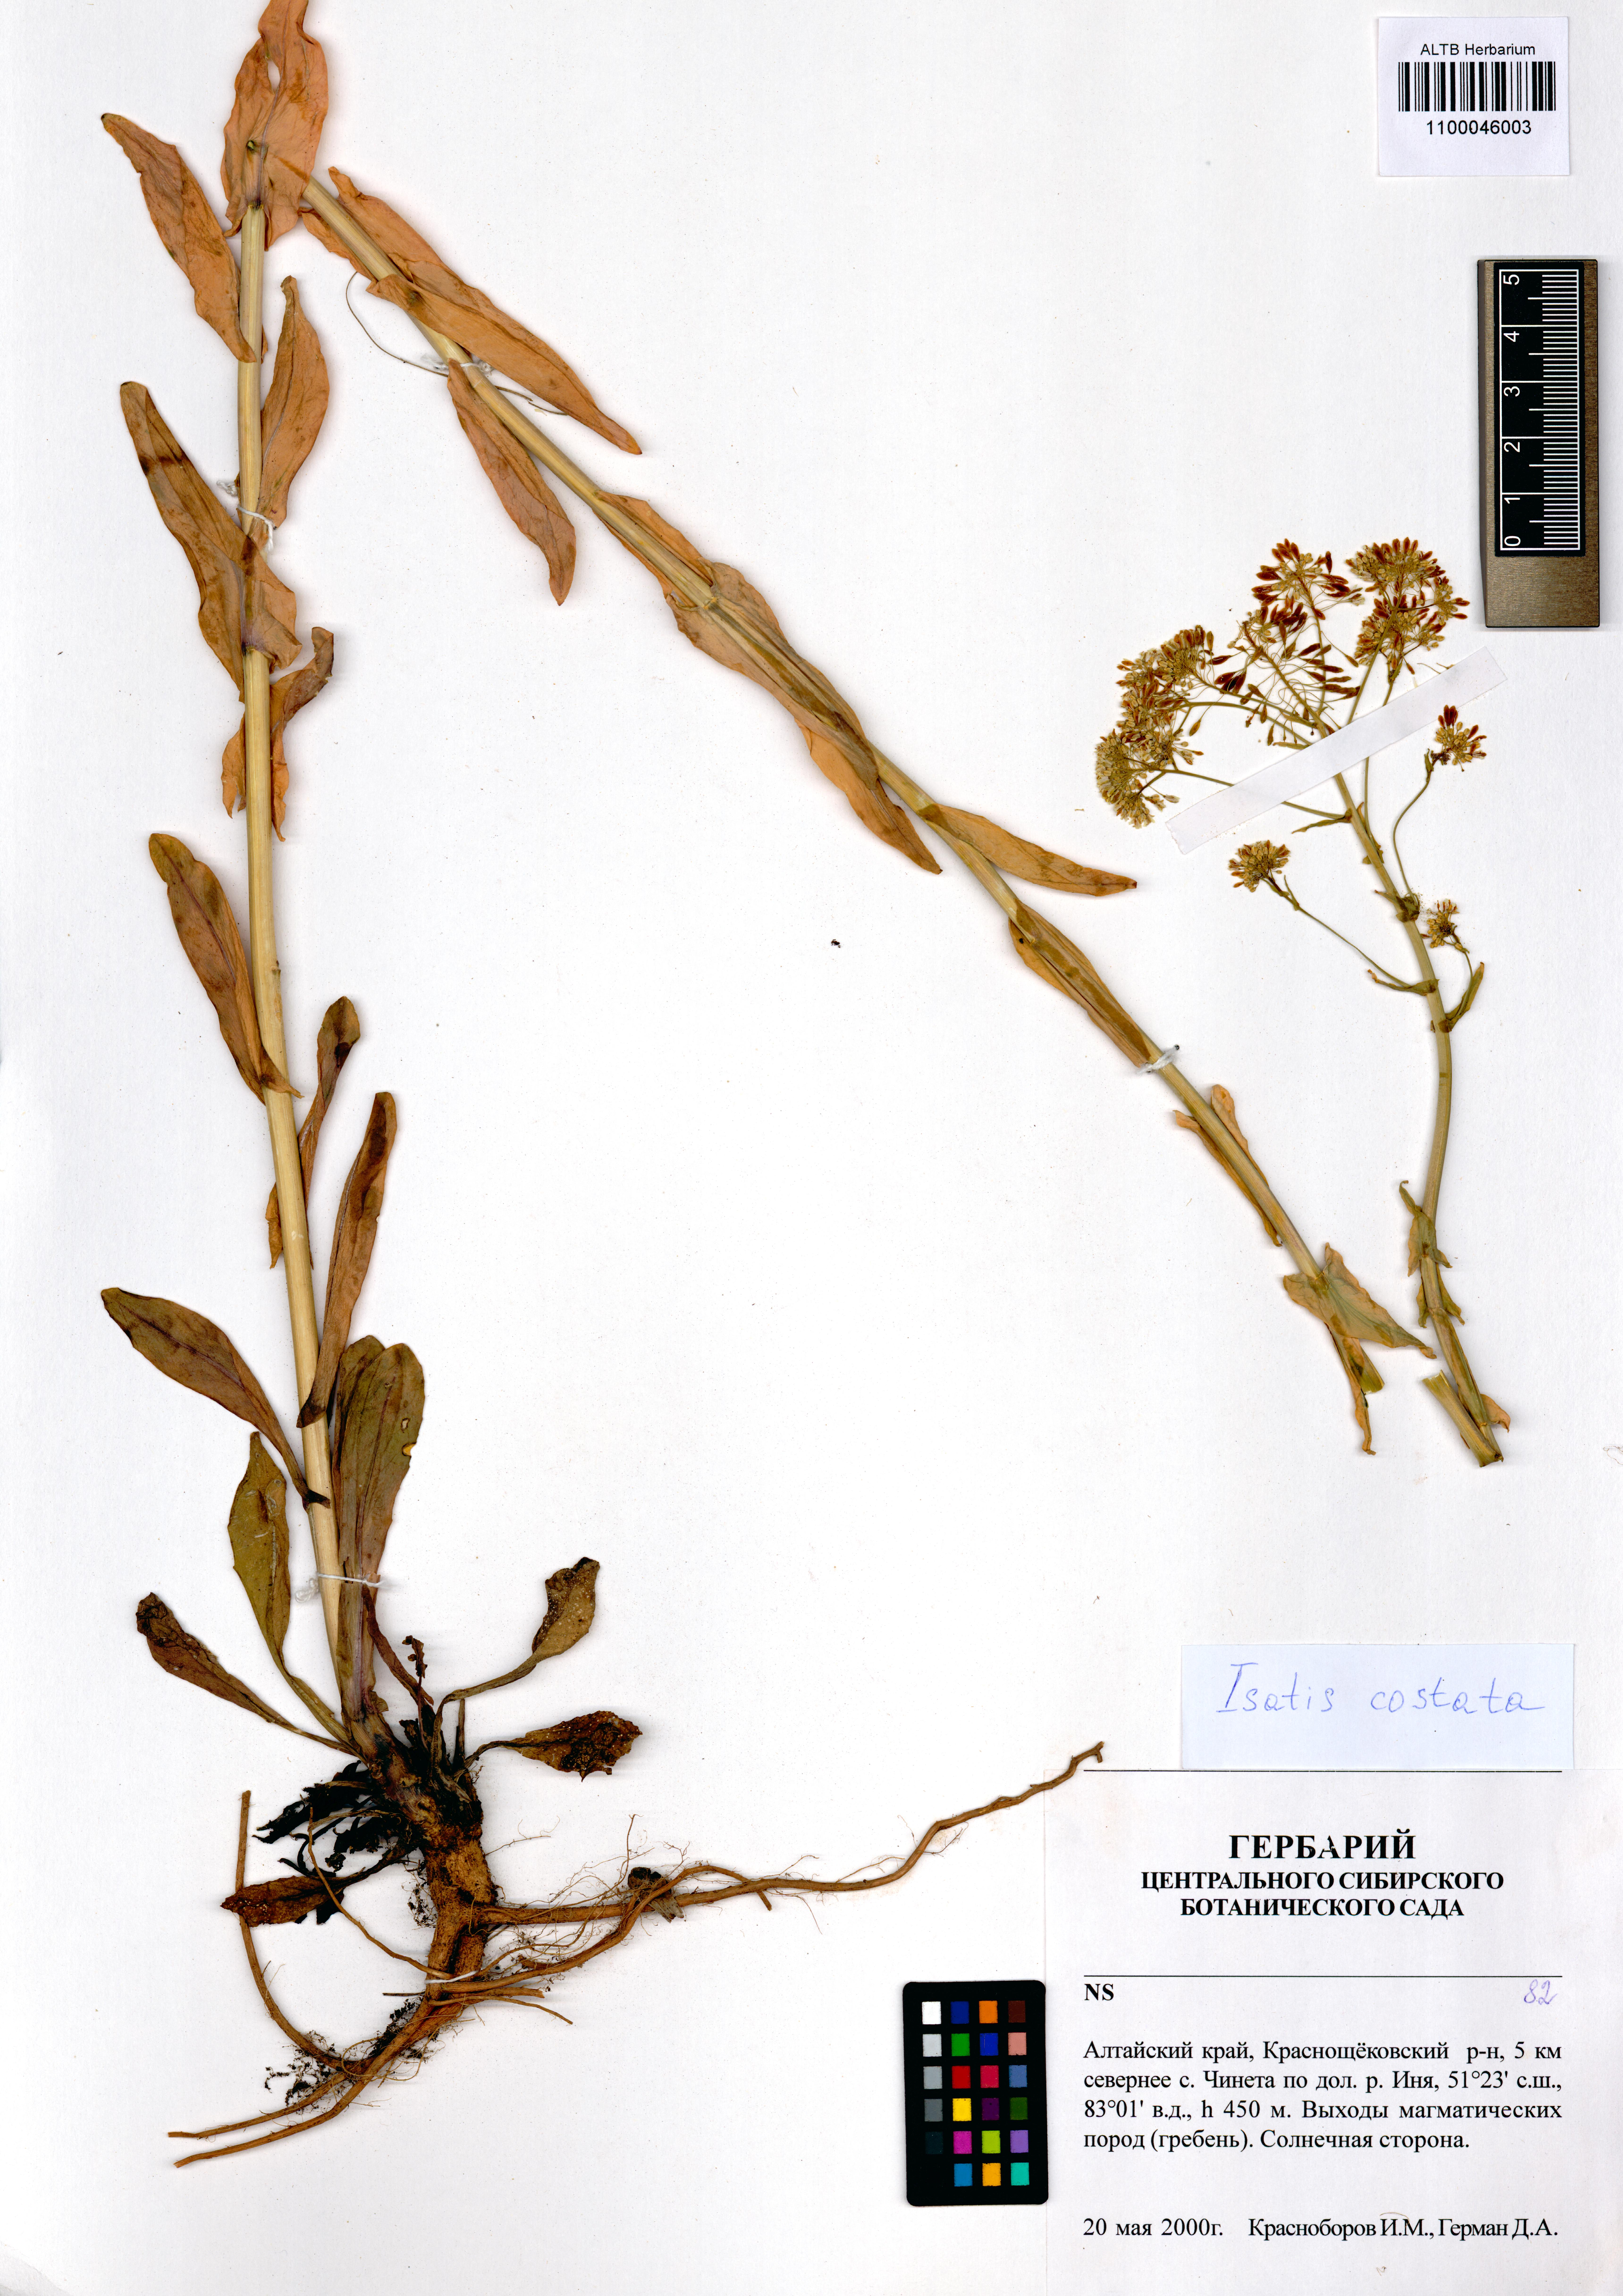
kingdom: Plantae
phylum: Tracheophyta
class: Magnoliopsida
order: Brassicales
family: Brassicaceae
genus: Isatis
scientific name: Isatis costata
